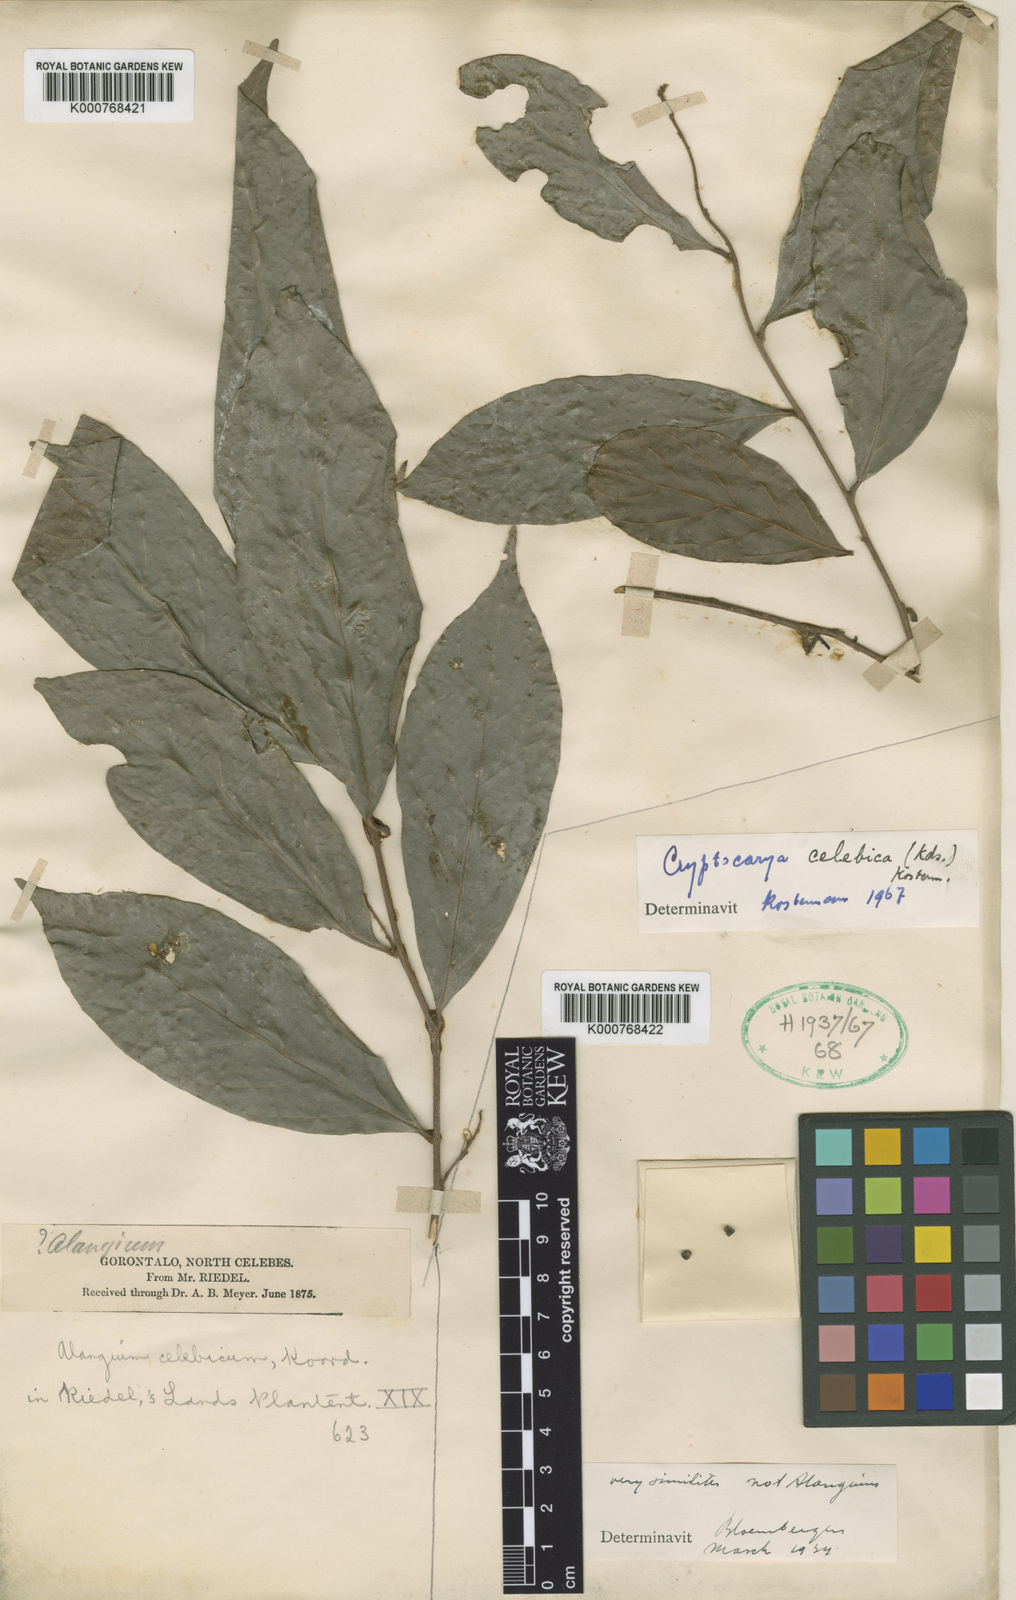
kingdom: Plantae
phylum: Tracheophyta
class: Magnoliopsida
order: Laurales
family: Lauraceae
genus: Cryptocarya
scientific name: Cryptocarya celebica
